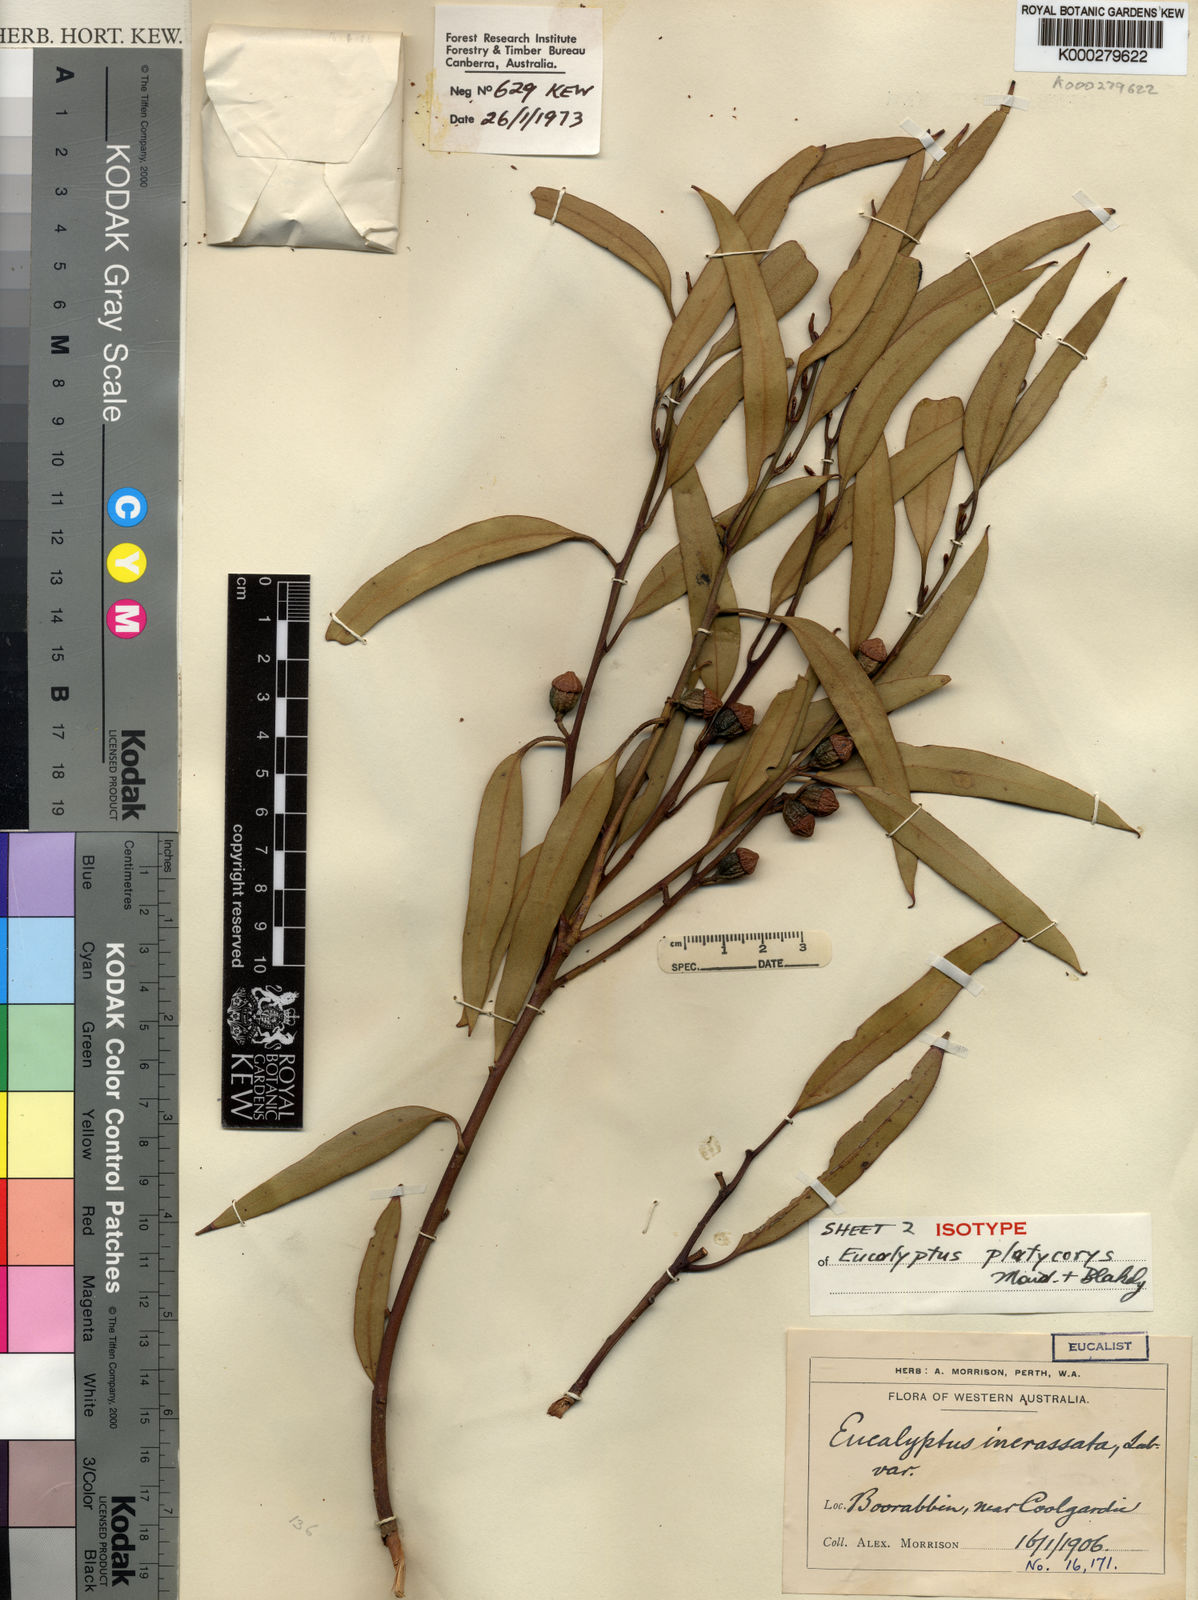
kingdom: Plantae
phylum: Tracheophyta
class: Magnoliopsida
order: Myrtales
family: Myrtaceae
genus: Eucalyptus
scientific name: Eucalyptus platycorys
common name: Boorabbin mallee
